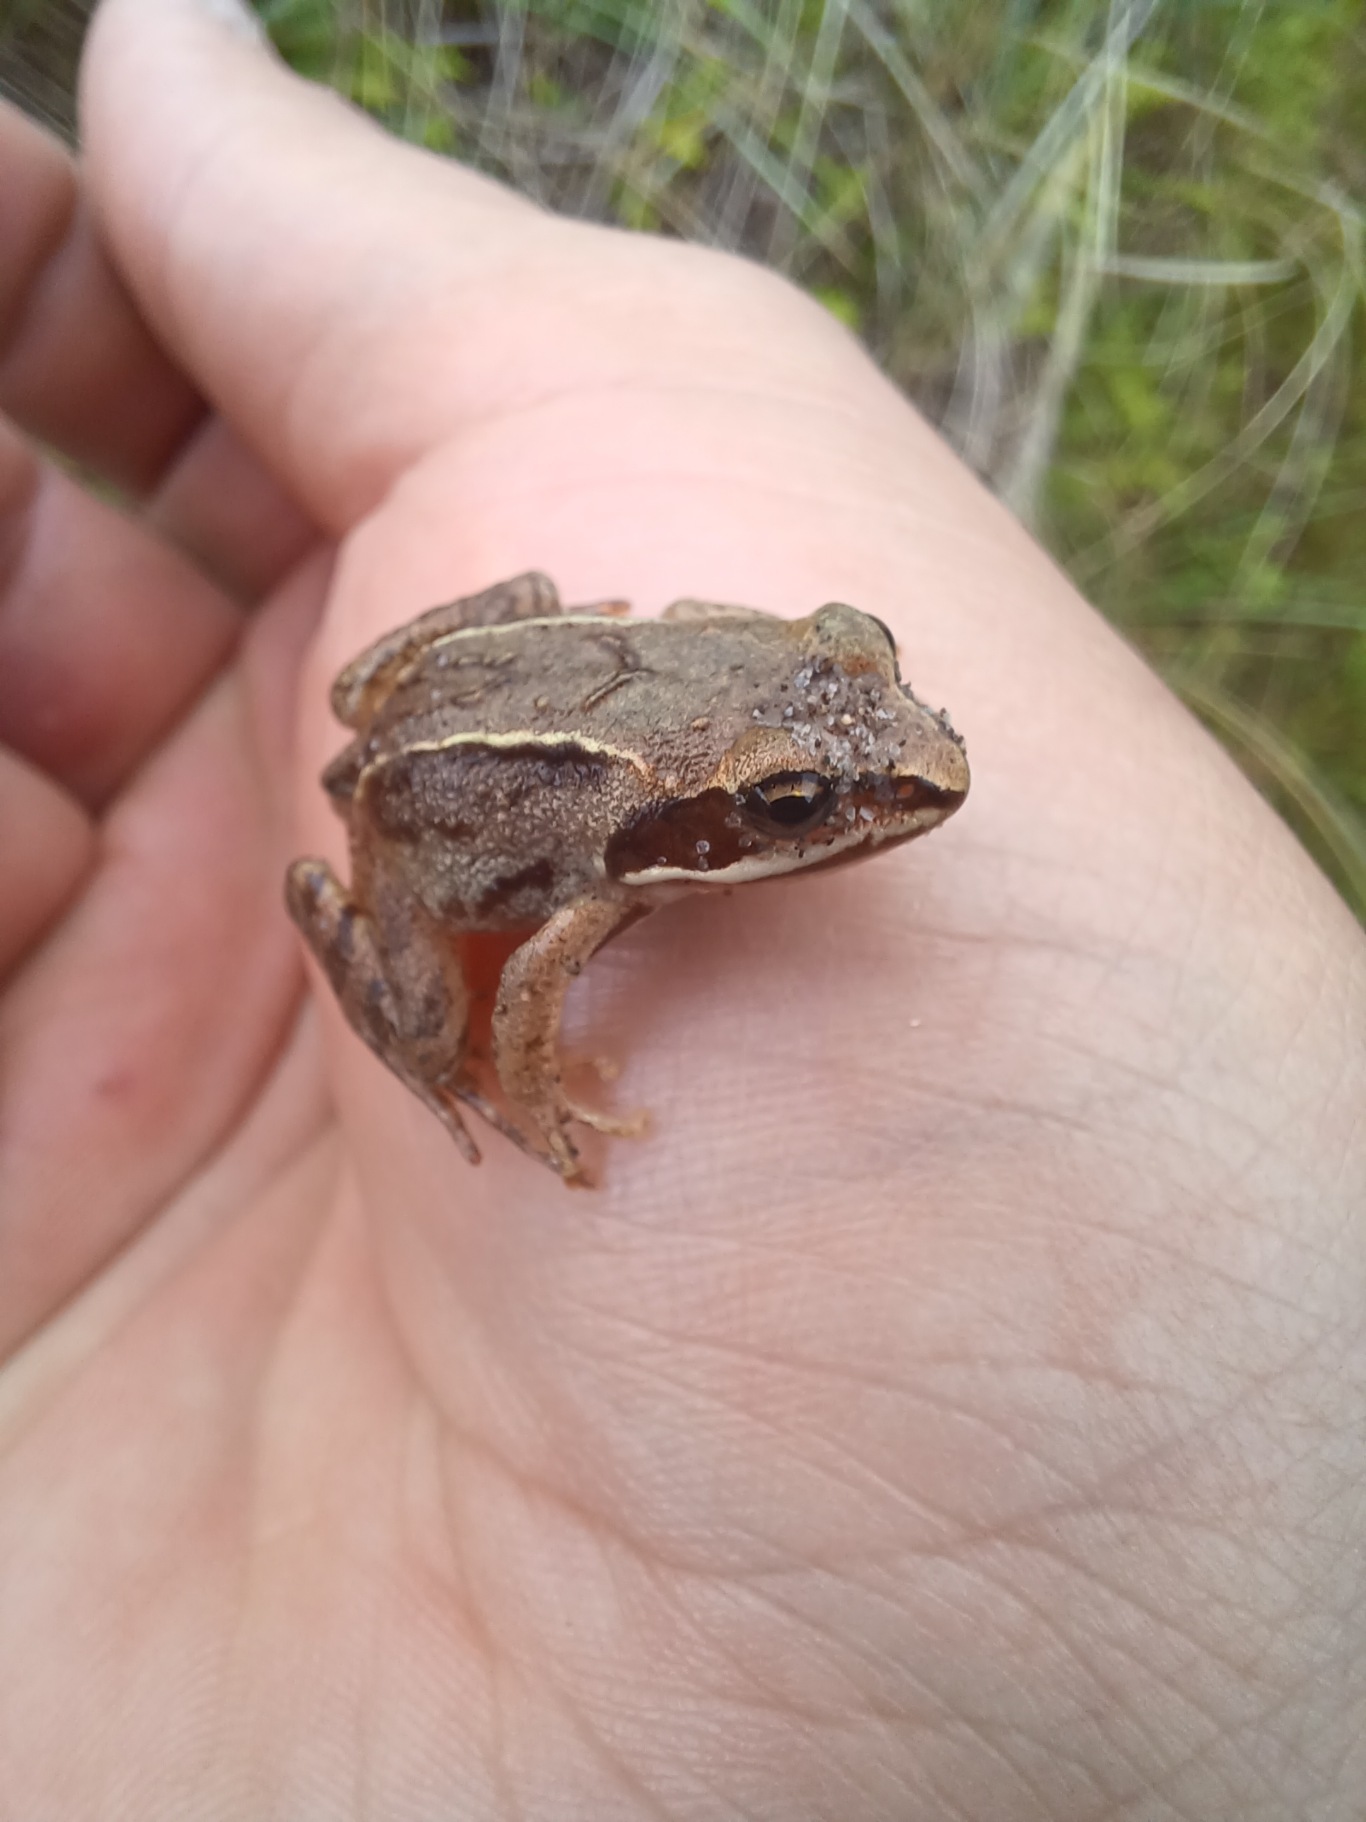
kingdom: Animalia
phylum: Chordata
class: Amphibia
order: Anura
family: Ranidae
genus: Rana
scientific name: Rana arvalis
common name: Spidssnudet frø
